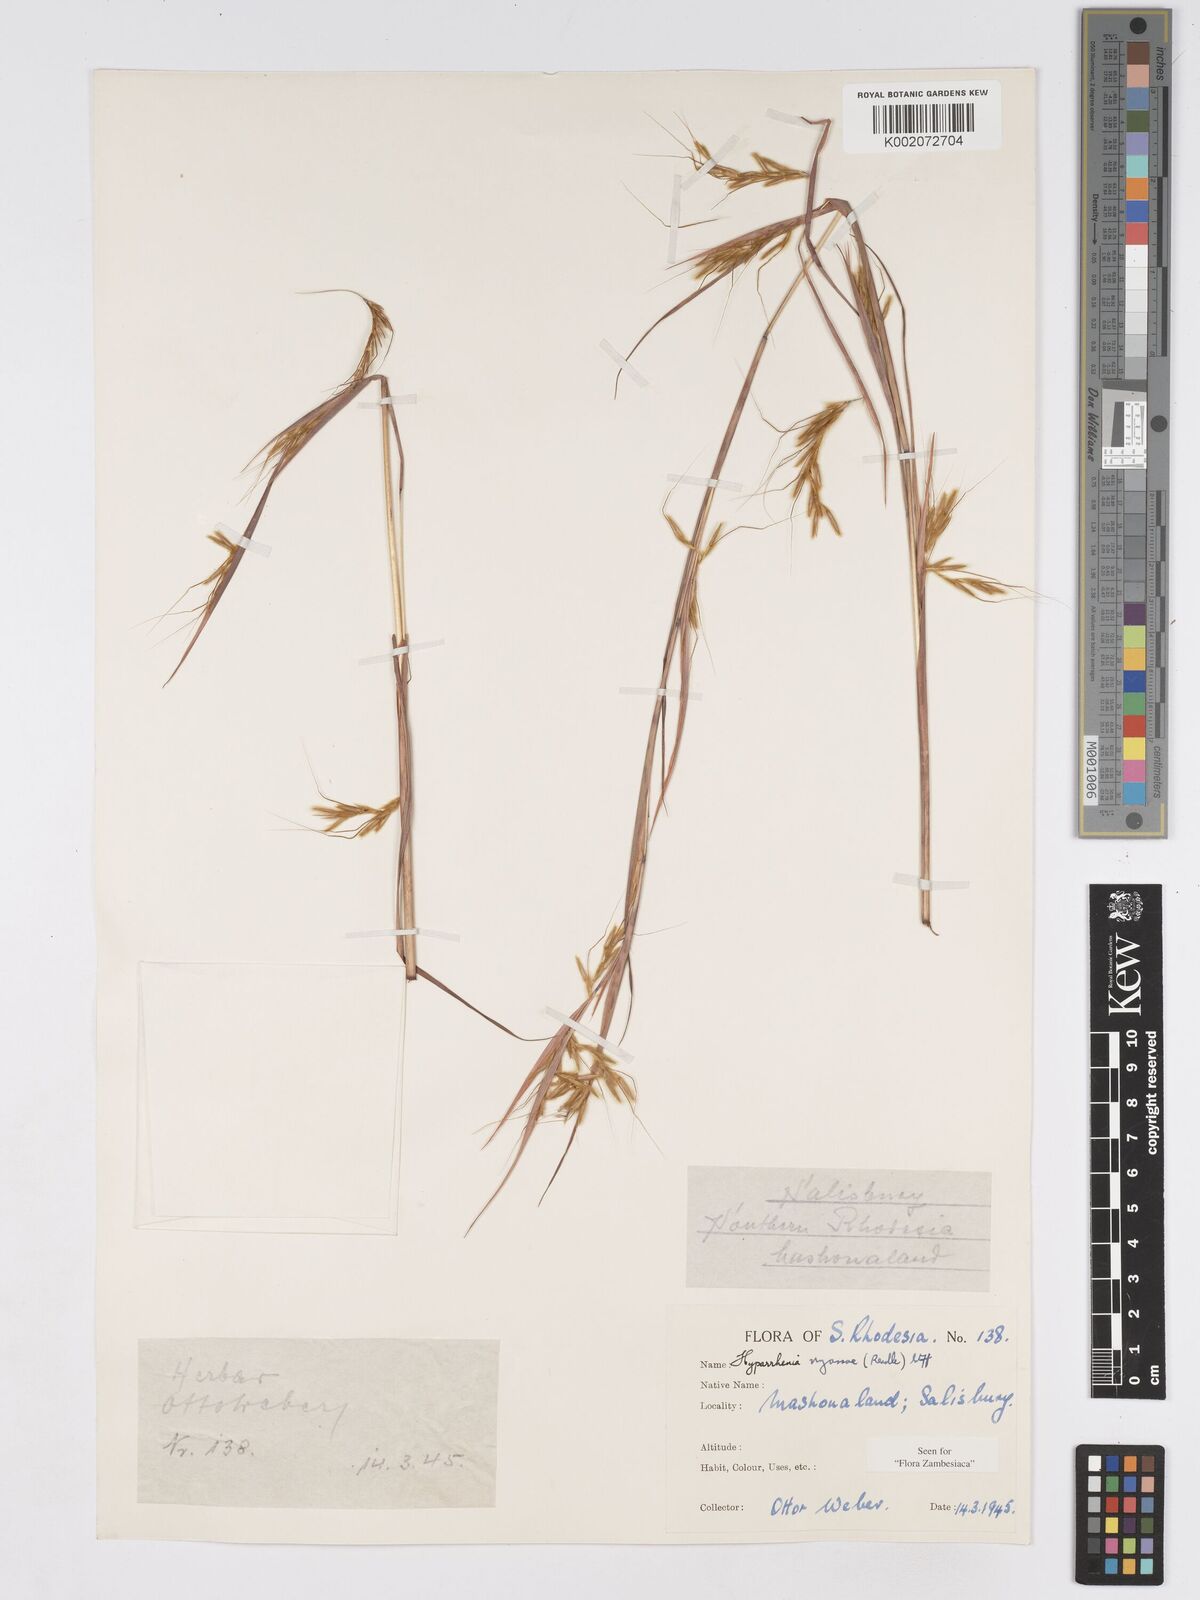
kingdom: Plantae
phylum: Tracheophyta
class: Liliopsida
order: Poales
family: Poaceae
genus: Hyparrhenia
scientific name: Hyparrhenia nyassae
